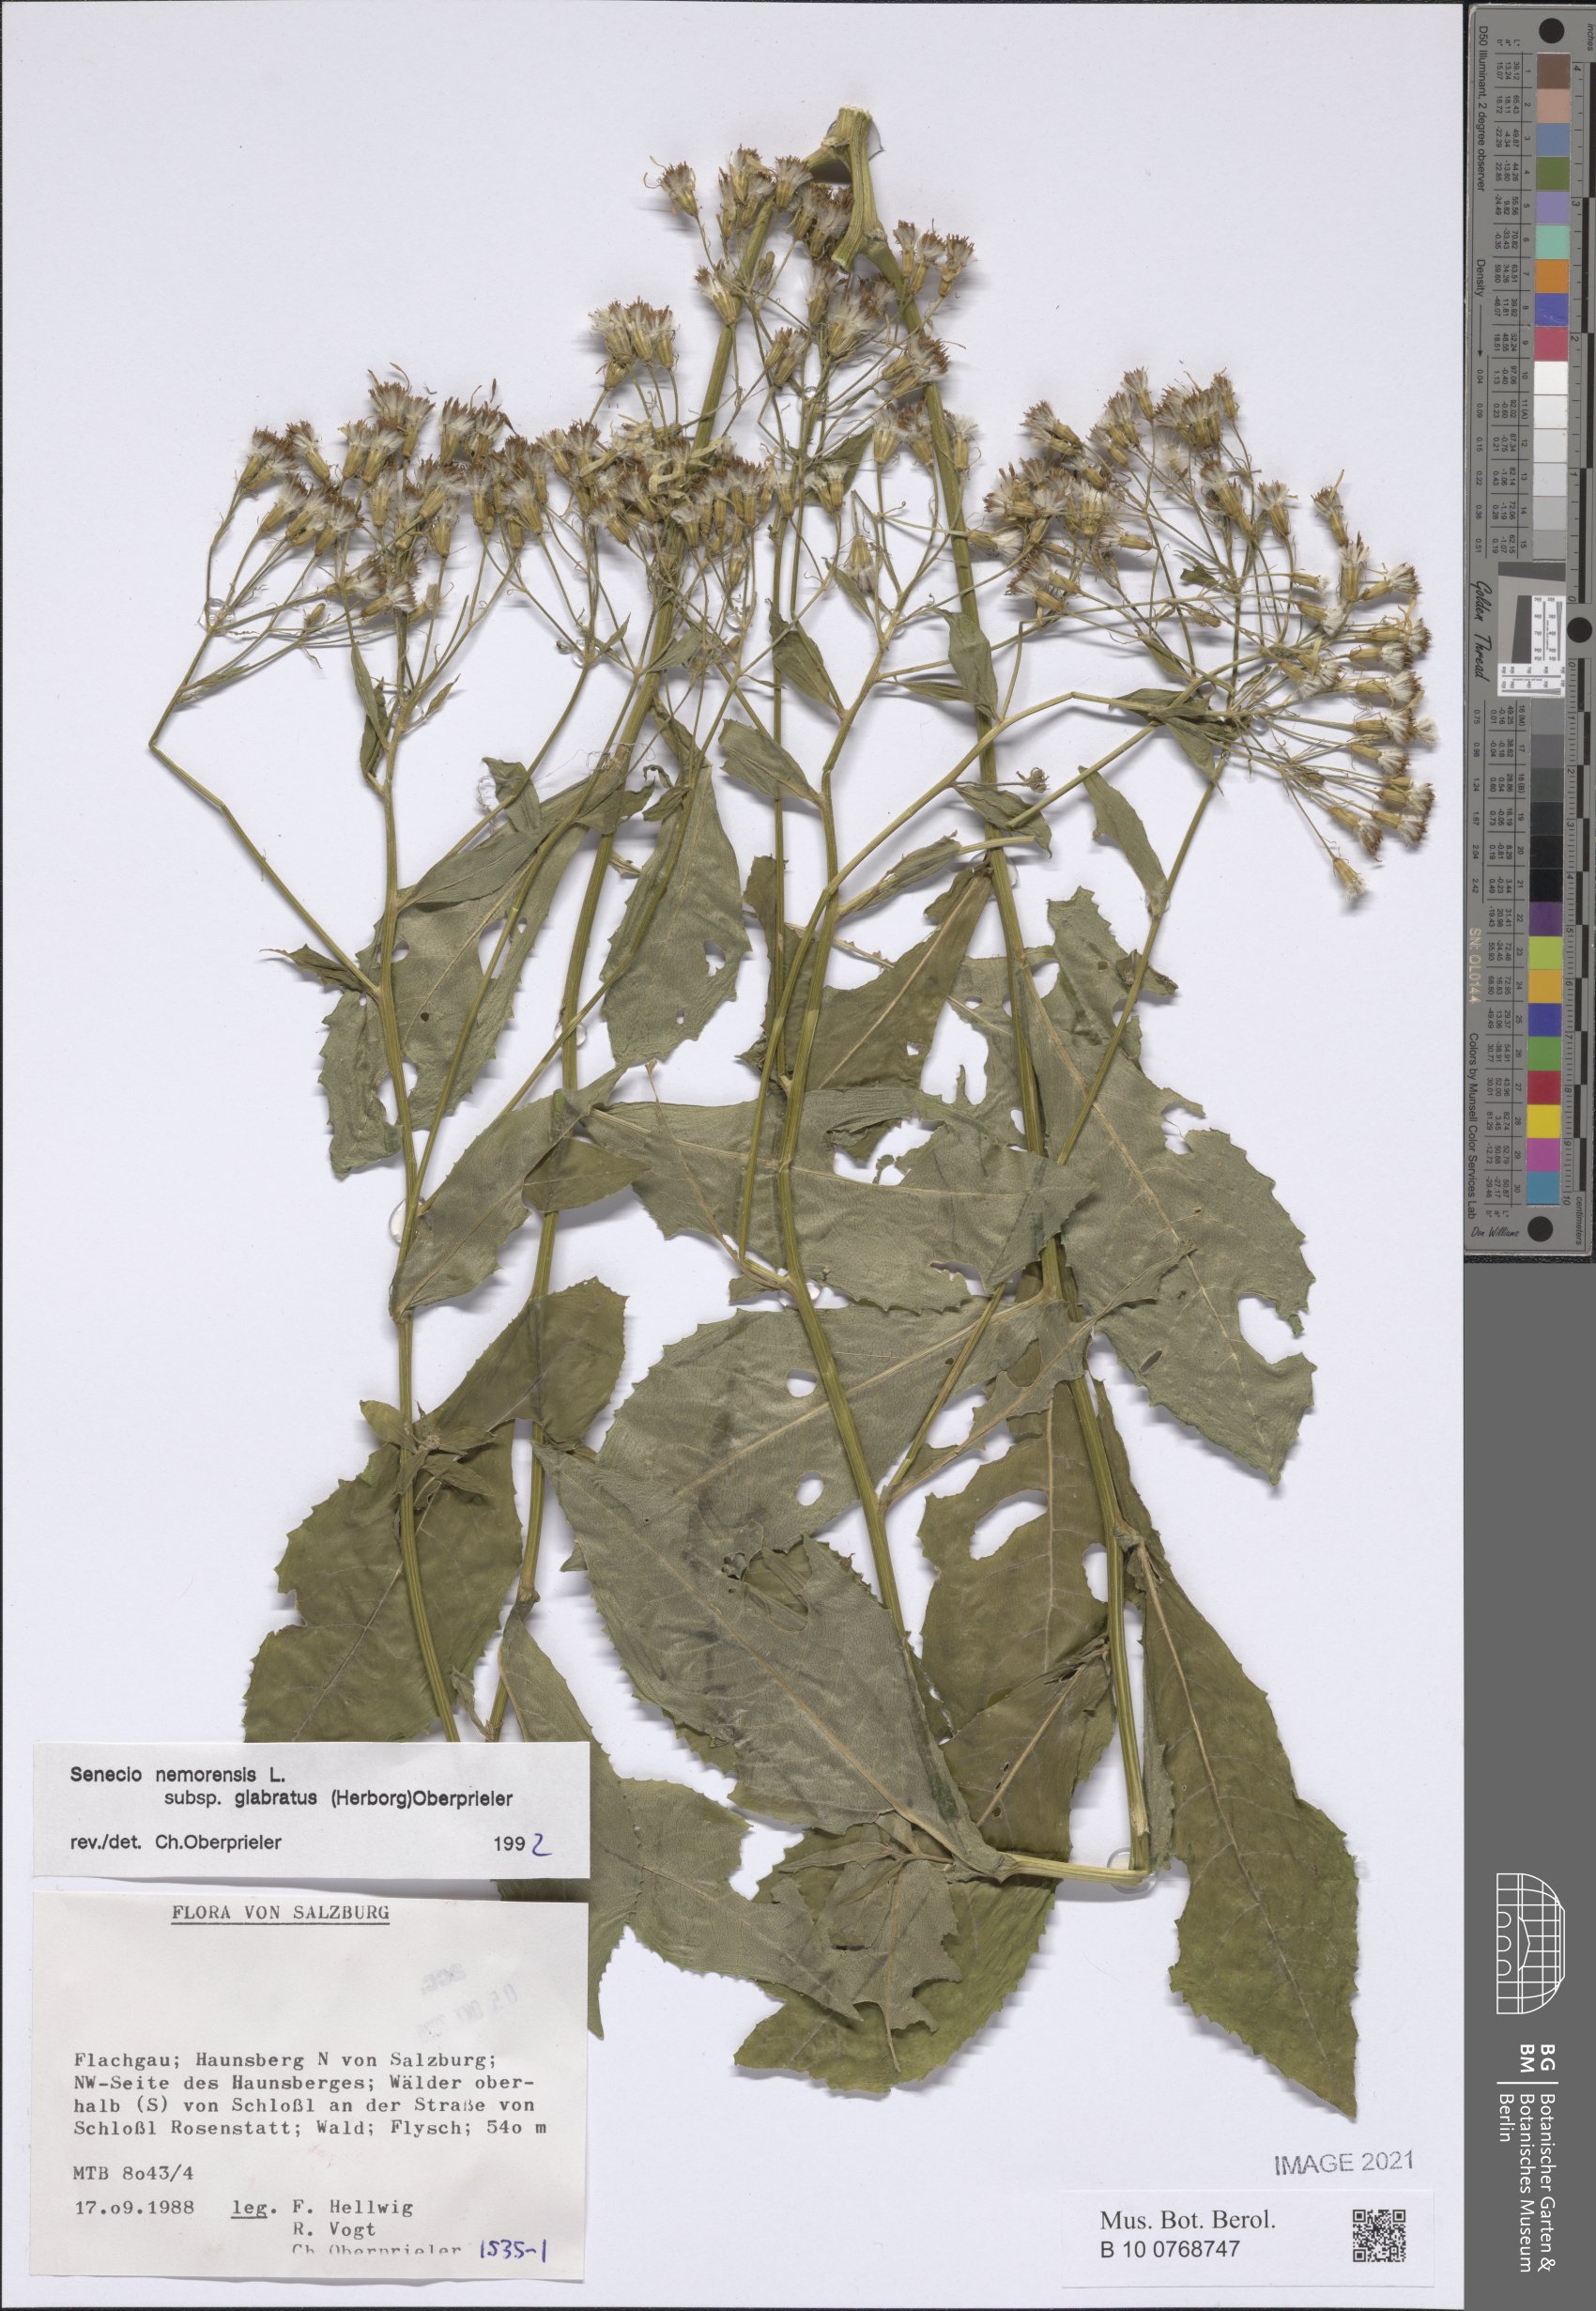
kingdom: Plantae
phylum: Tracheophyta
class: Magnoliopsida
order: Asterales
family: Asteraceae
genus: Senecio
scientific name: Senecio germanicus
